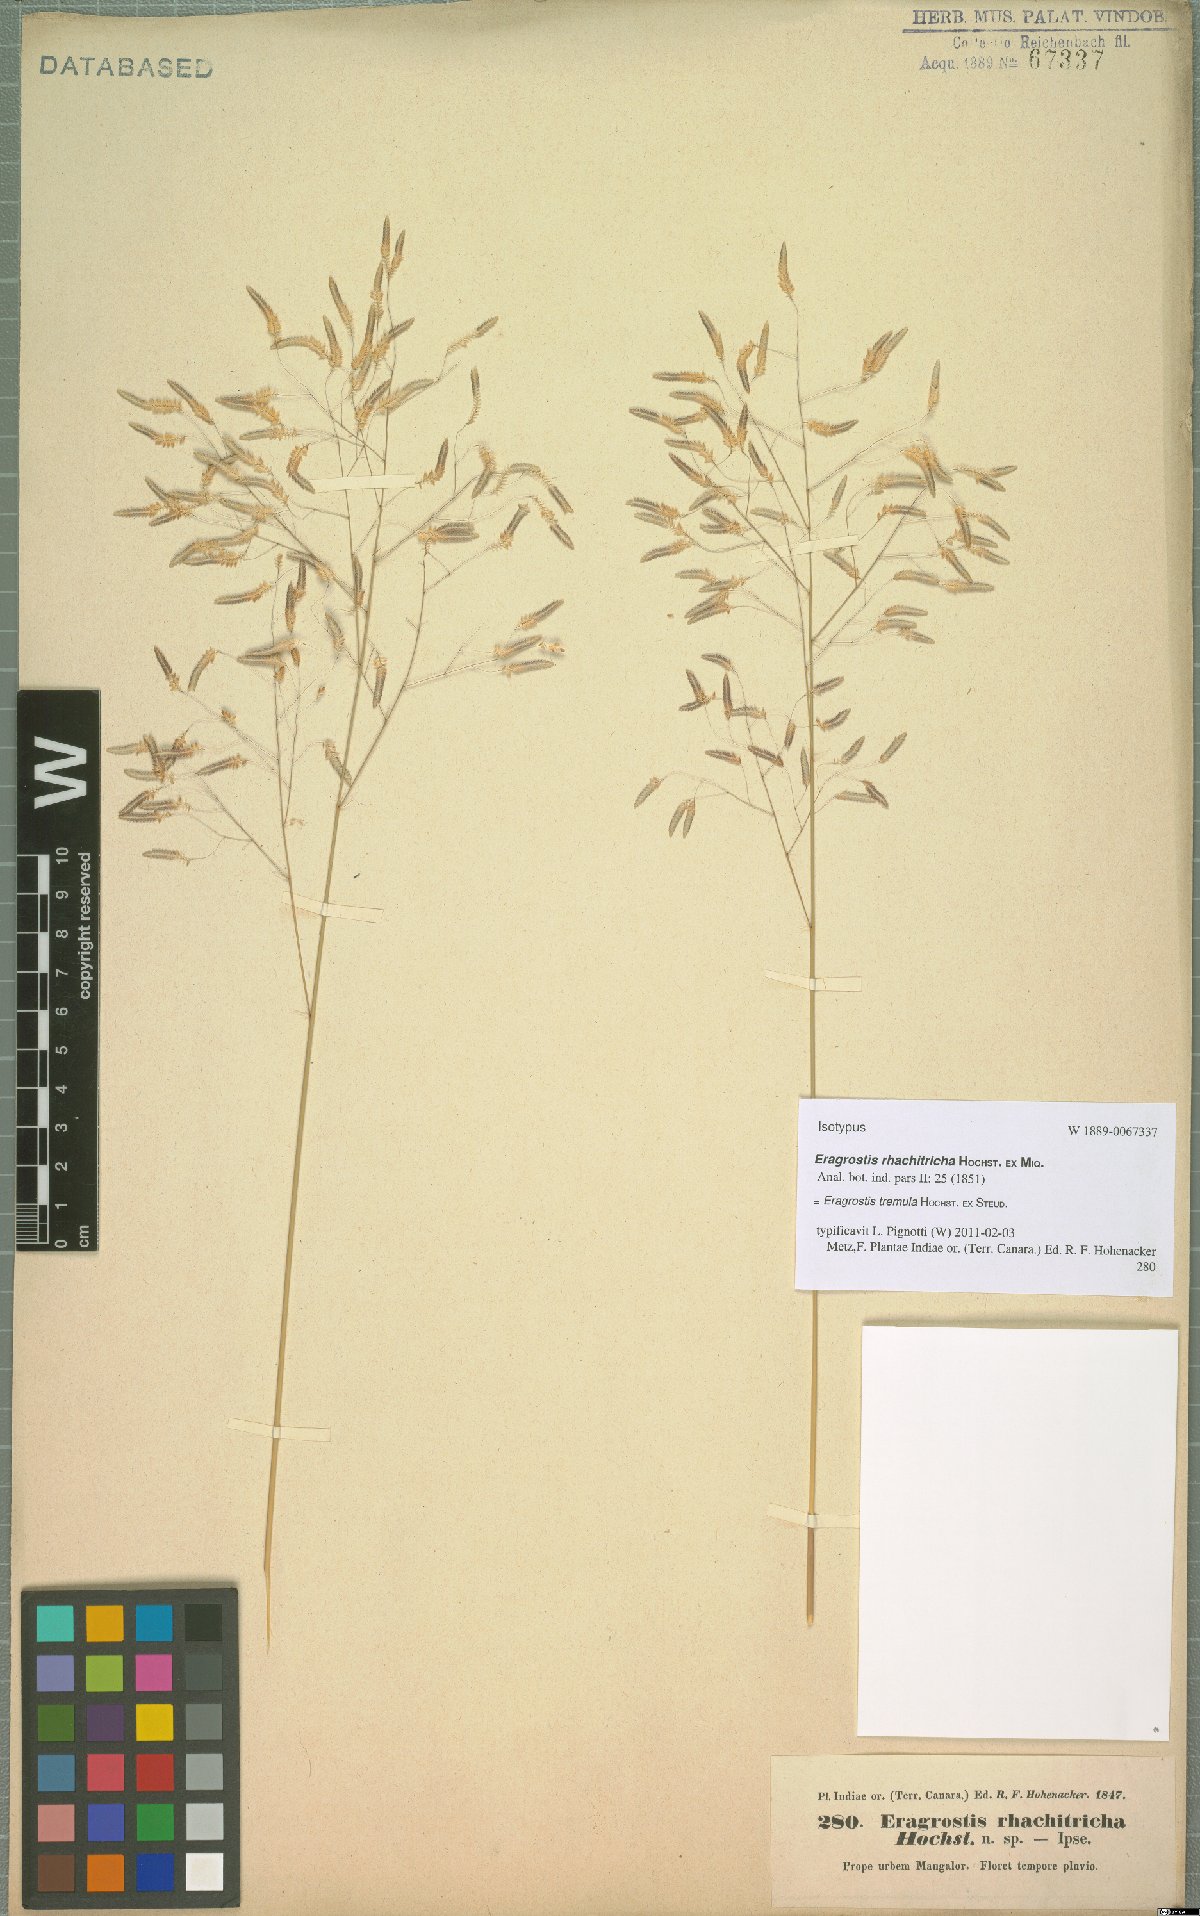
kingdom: Plantae
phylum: Tracheophyta
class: Liliopsida
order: Poales
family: Poaceae
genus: Eragrostis
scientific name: Eragrostis tremula
